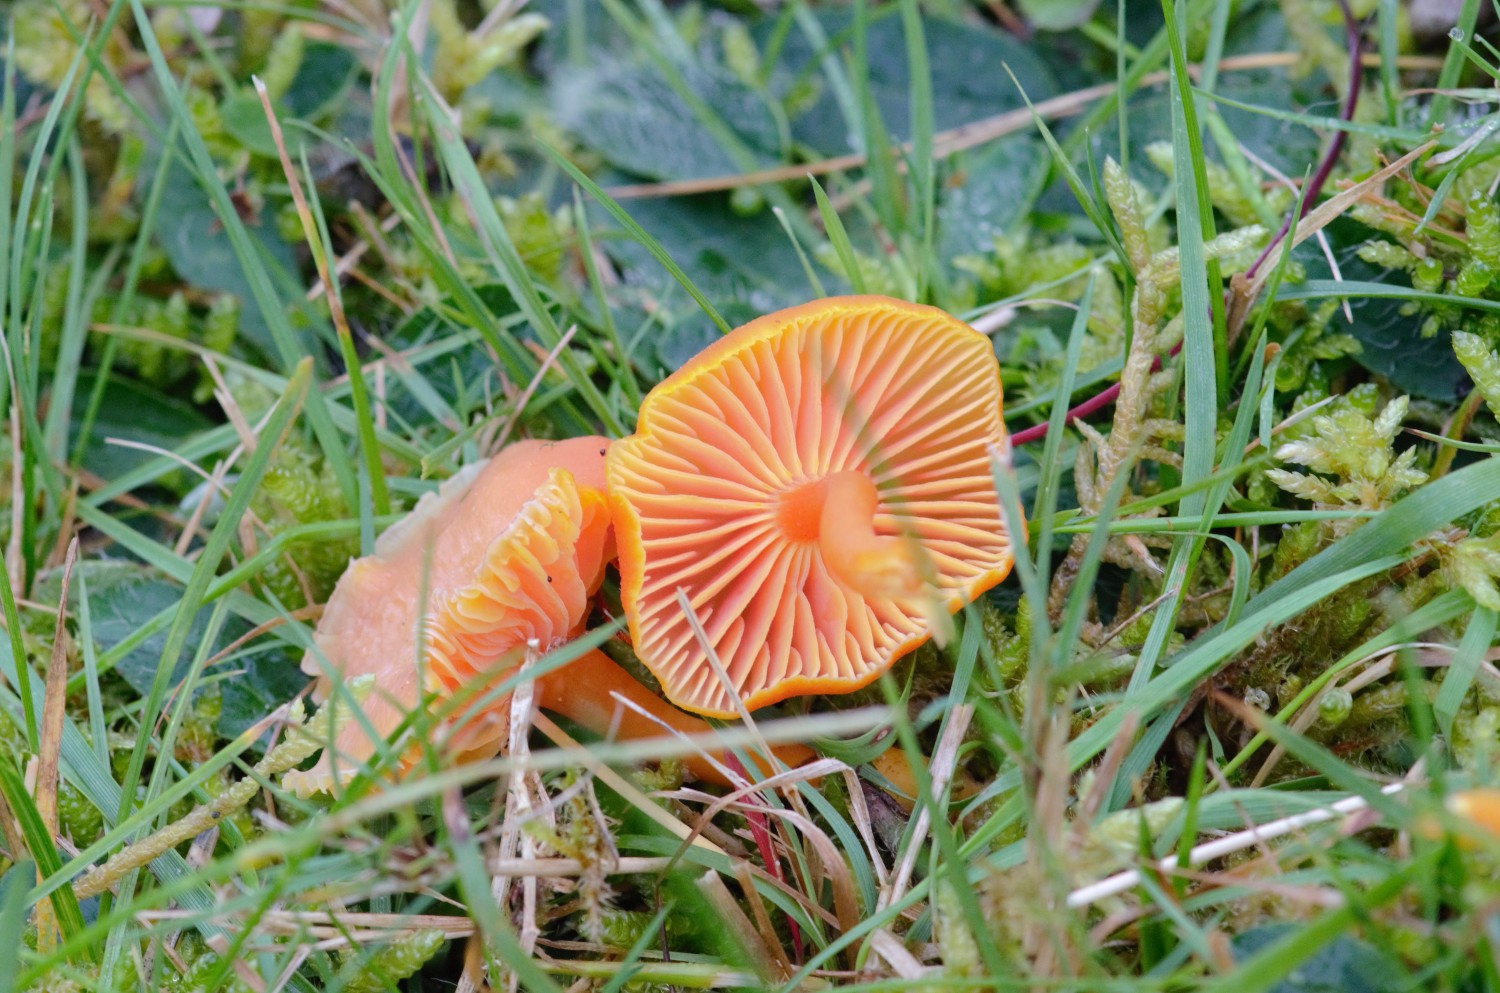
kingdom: Fungi
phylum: Basidiomycota
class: Agaricomycetes
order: Agaricales
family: Hygrophoraceae
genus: Hygrocybe
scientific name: Hygrocybe miniata
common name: mønje-vokshat
